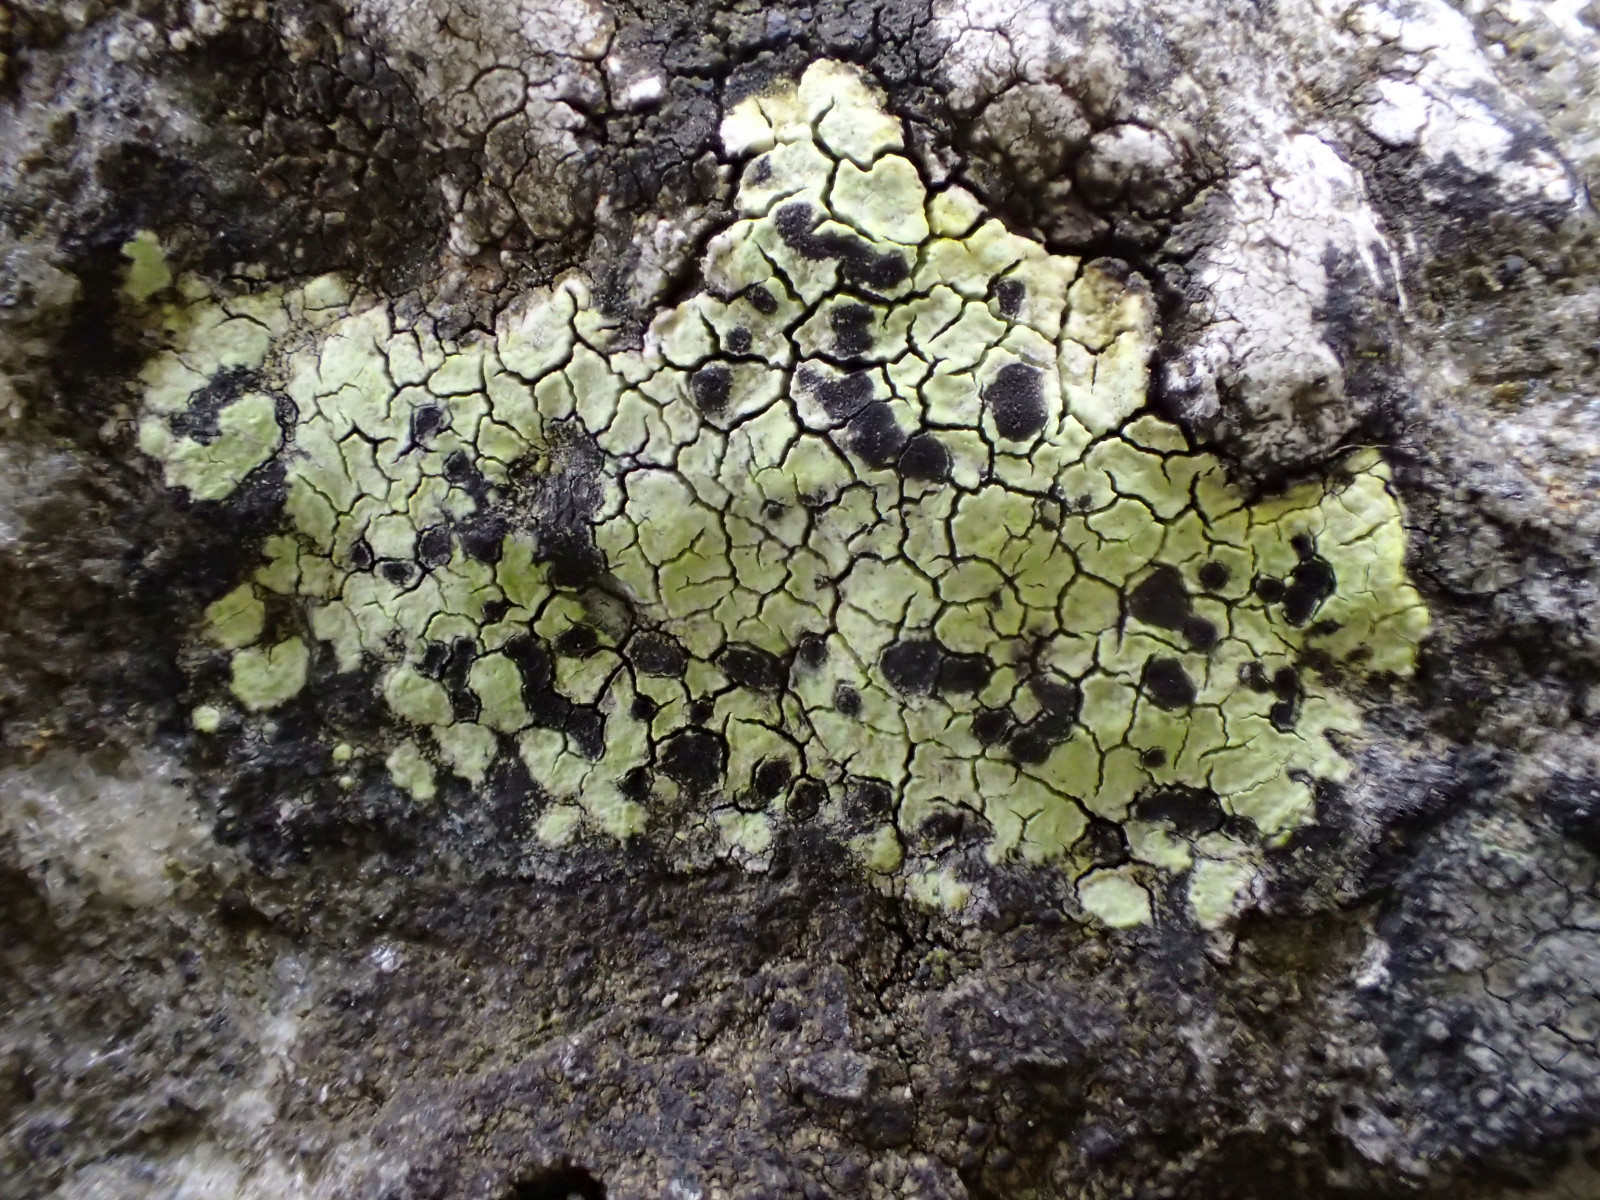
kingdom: Fungi
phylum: Ascomycota
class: Lecanoromycetes
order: Rhizocarpales
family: Rhizocarpaceae
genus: Rhizocarpon
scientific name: Rhizocarpon geographicum
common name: gulgrøn landkortlav
